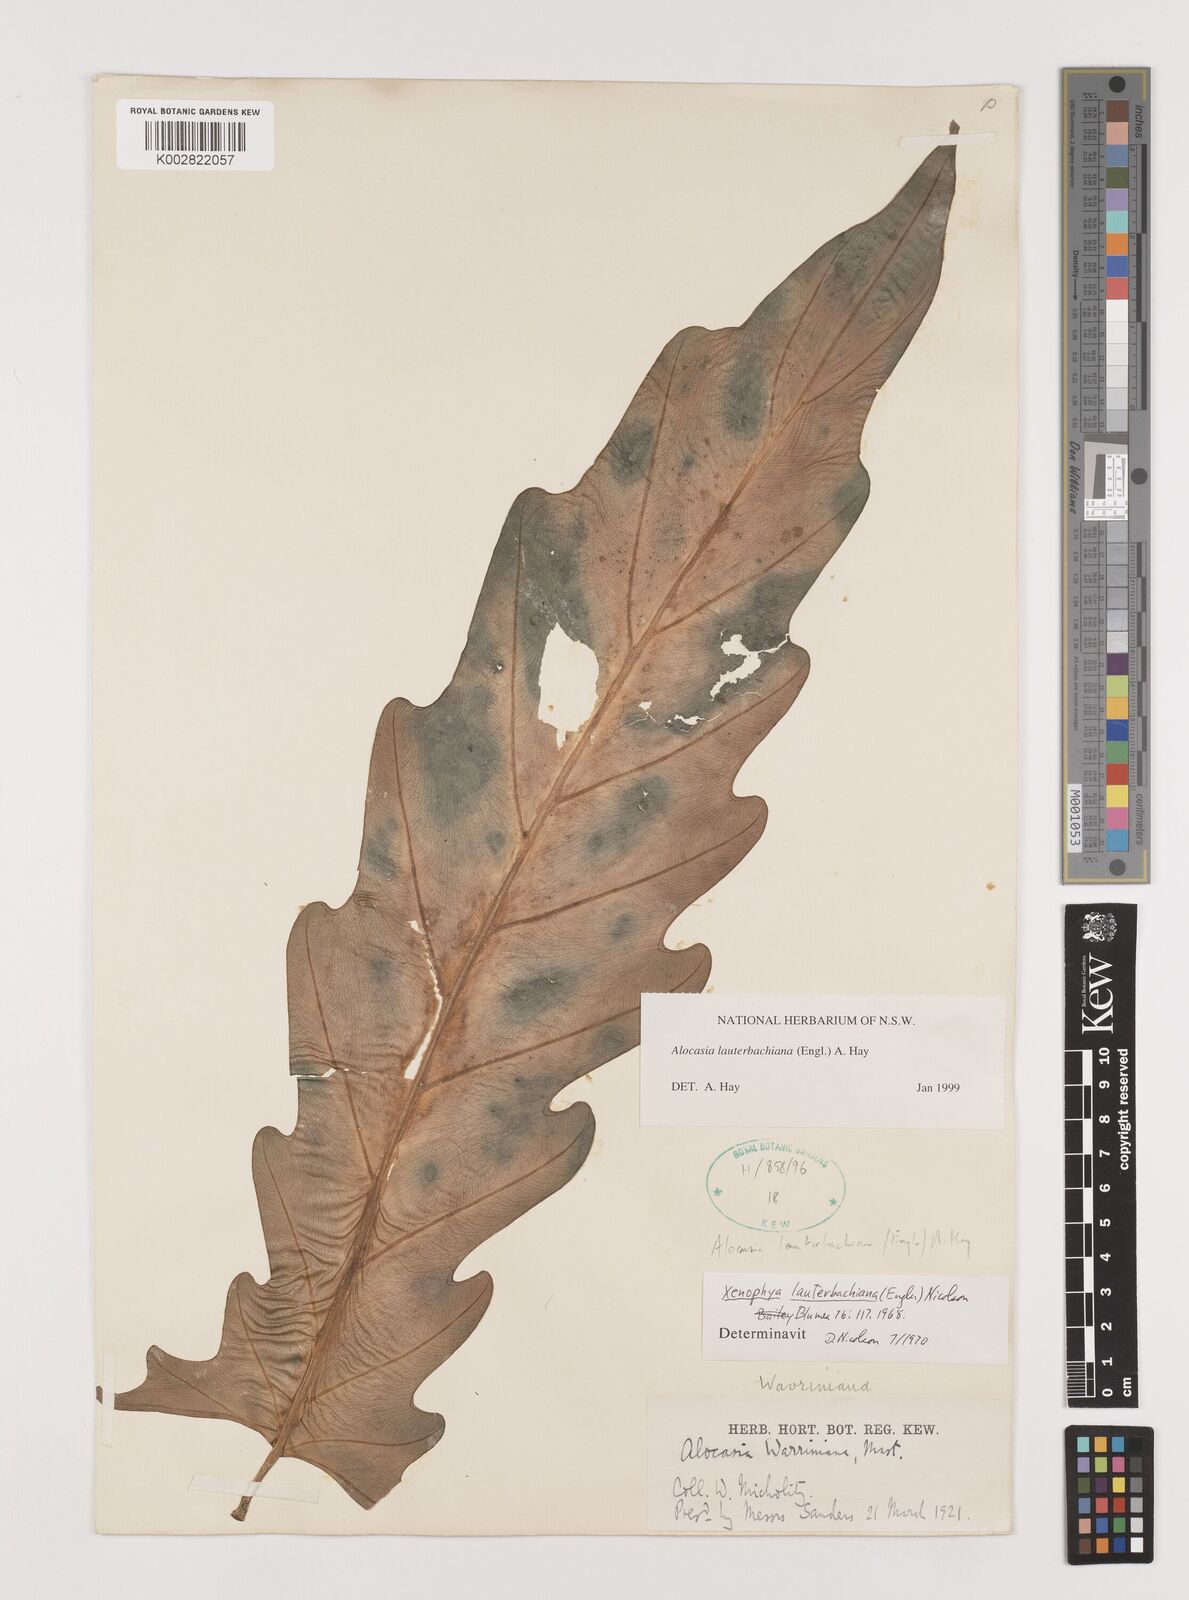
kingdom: Plantae
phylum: Tracheophyta
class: Liliopsida
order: Alismatales
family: Araceae
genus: Alocasia
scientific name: Alocasia lauterbachiana
